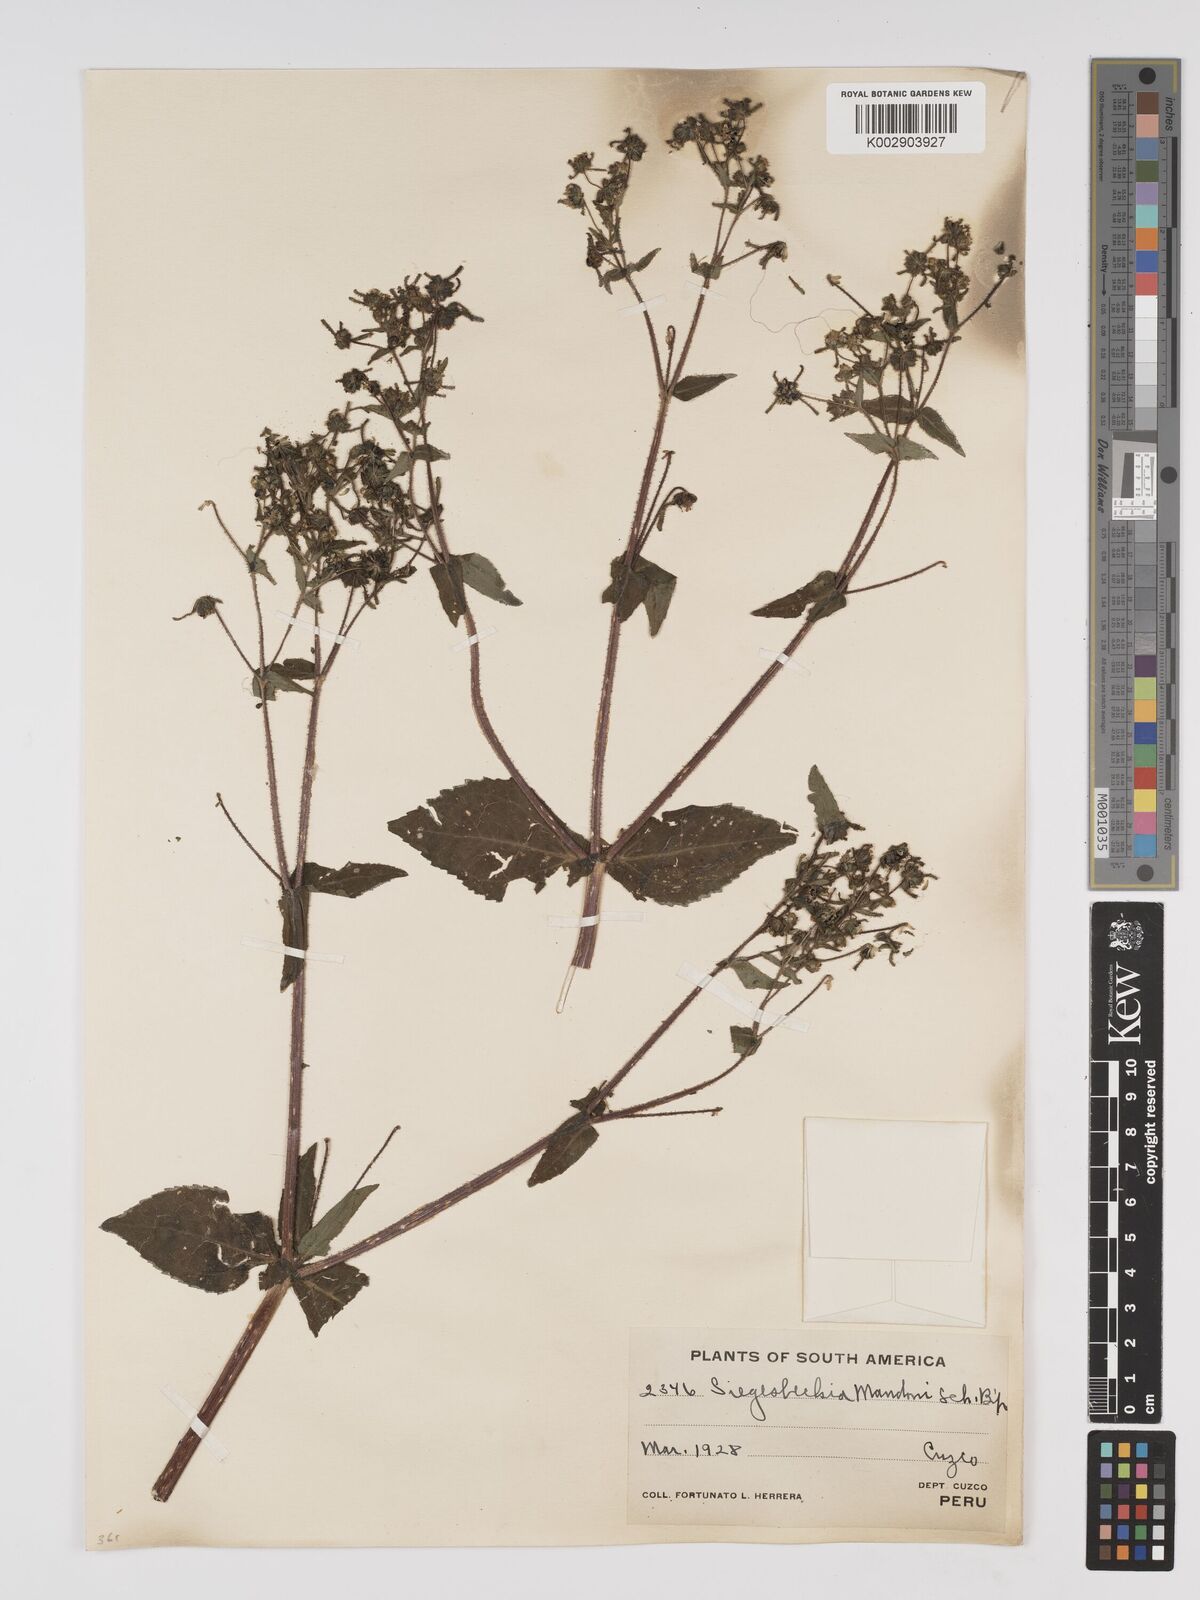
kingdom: Plantae
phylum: Tracheophyta
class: Magnoliopsida
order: Asterales
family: Asteraceae
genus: Sigesbeckia
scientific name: Sigesbeckia jorullensis
